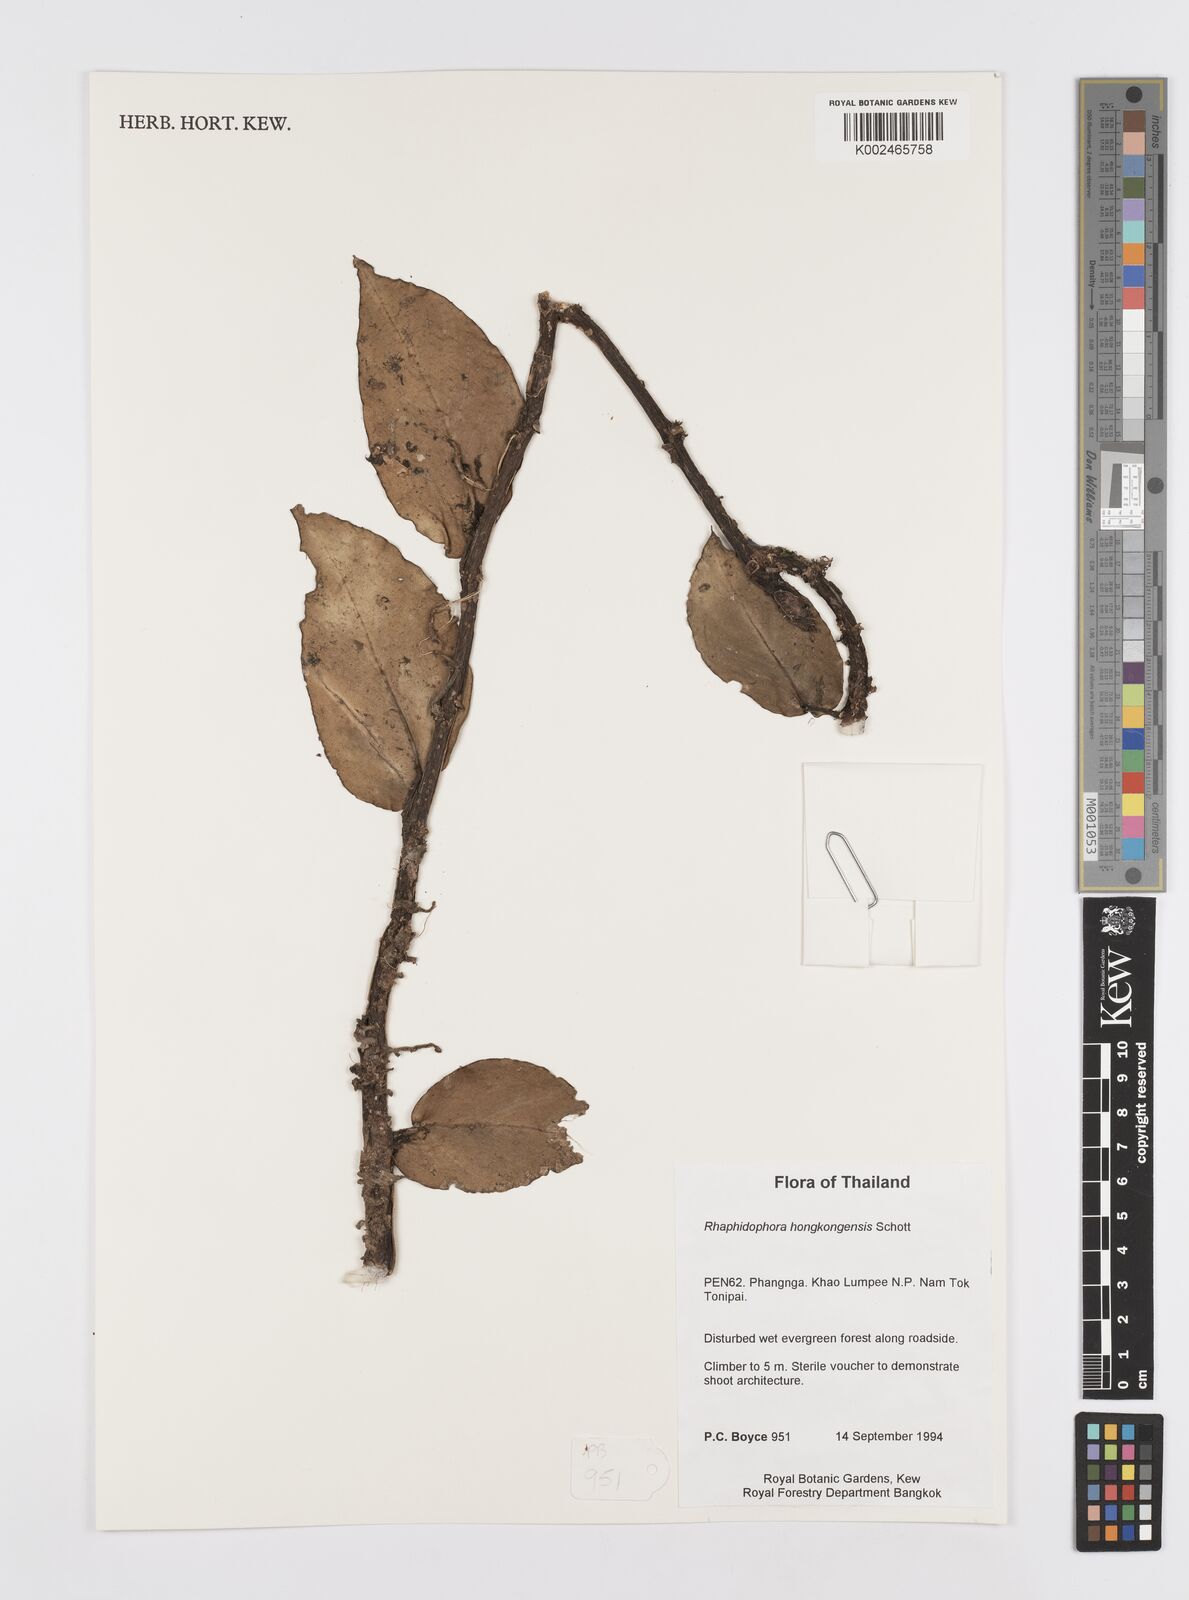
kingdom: Plantae
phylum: Tracheophyta
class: Liliopsida
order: Alismatales
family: Araceae
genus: Rhaphidophora
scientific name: Rhaphidophora
